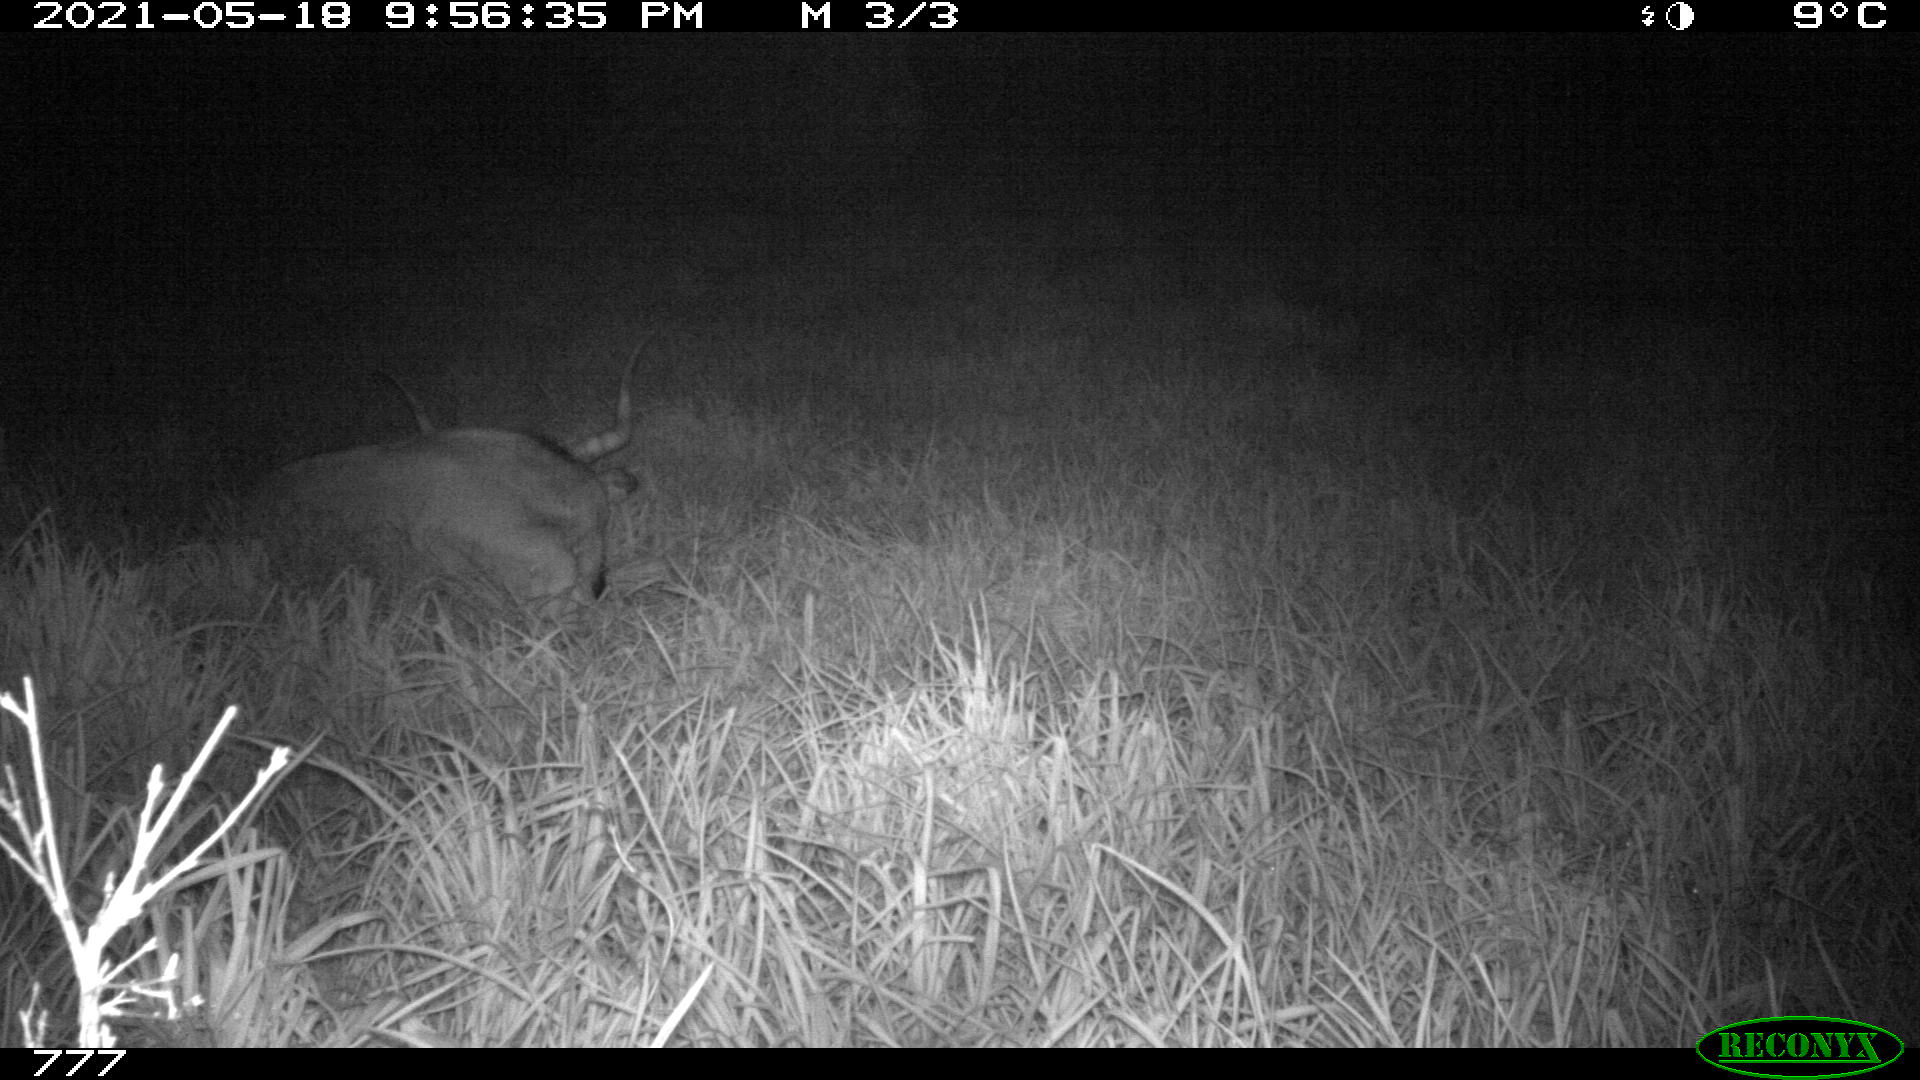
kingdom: Animalia
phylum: Chordata
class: Mammalia
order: Artiodactyla
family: Bovidae
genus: Bos
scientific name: Bos taurus
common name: Domesticated cattle
